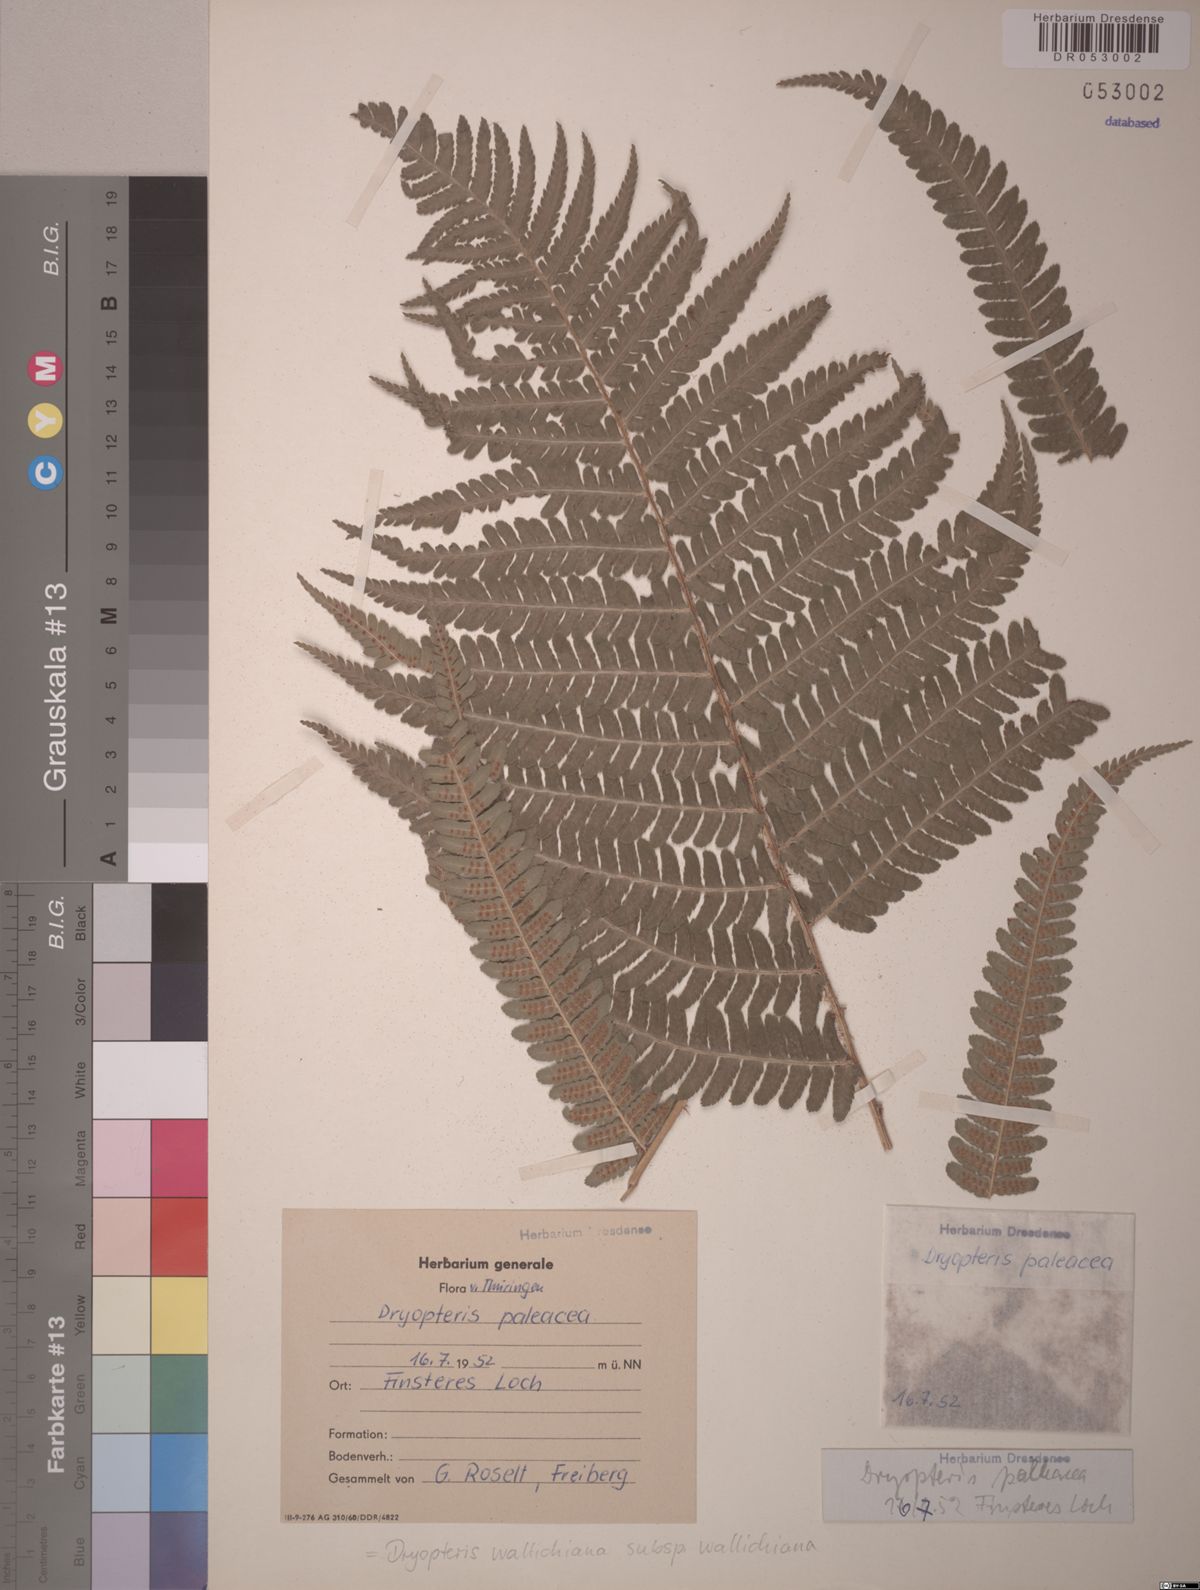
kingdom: Plantae
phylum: Tracheophyta
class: Polypodiopsida
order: Polypodiales
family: Dryopteridaceae
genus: Dryopteris
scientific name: Dryopteris wallichiana
